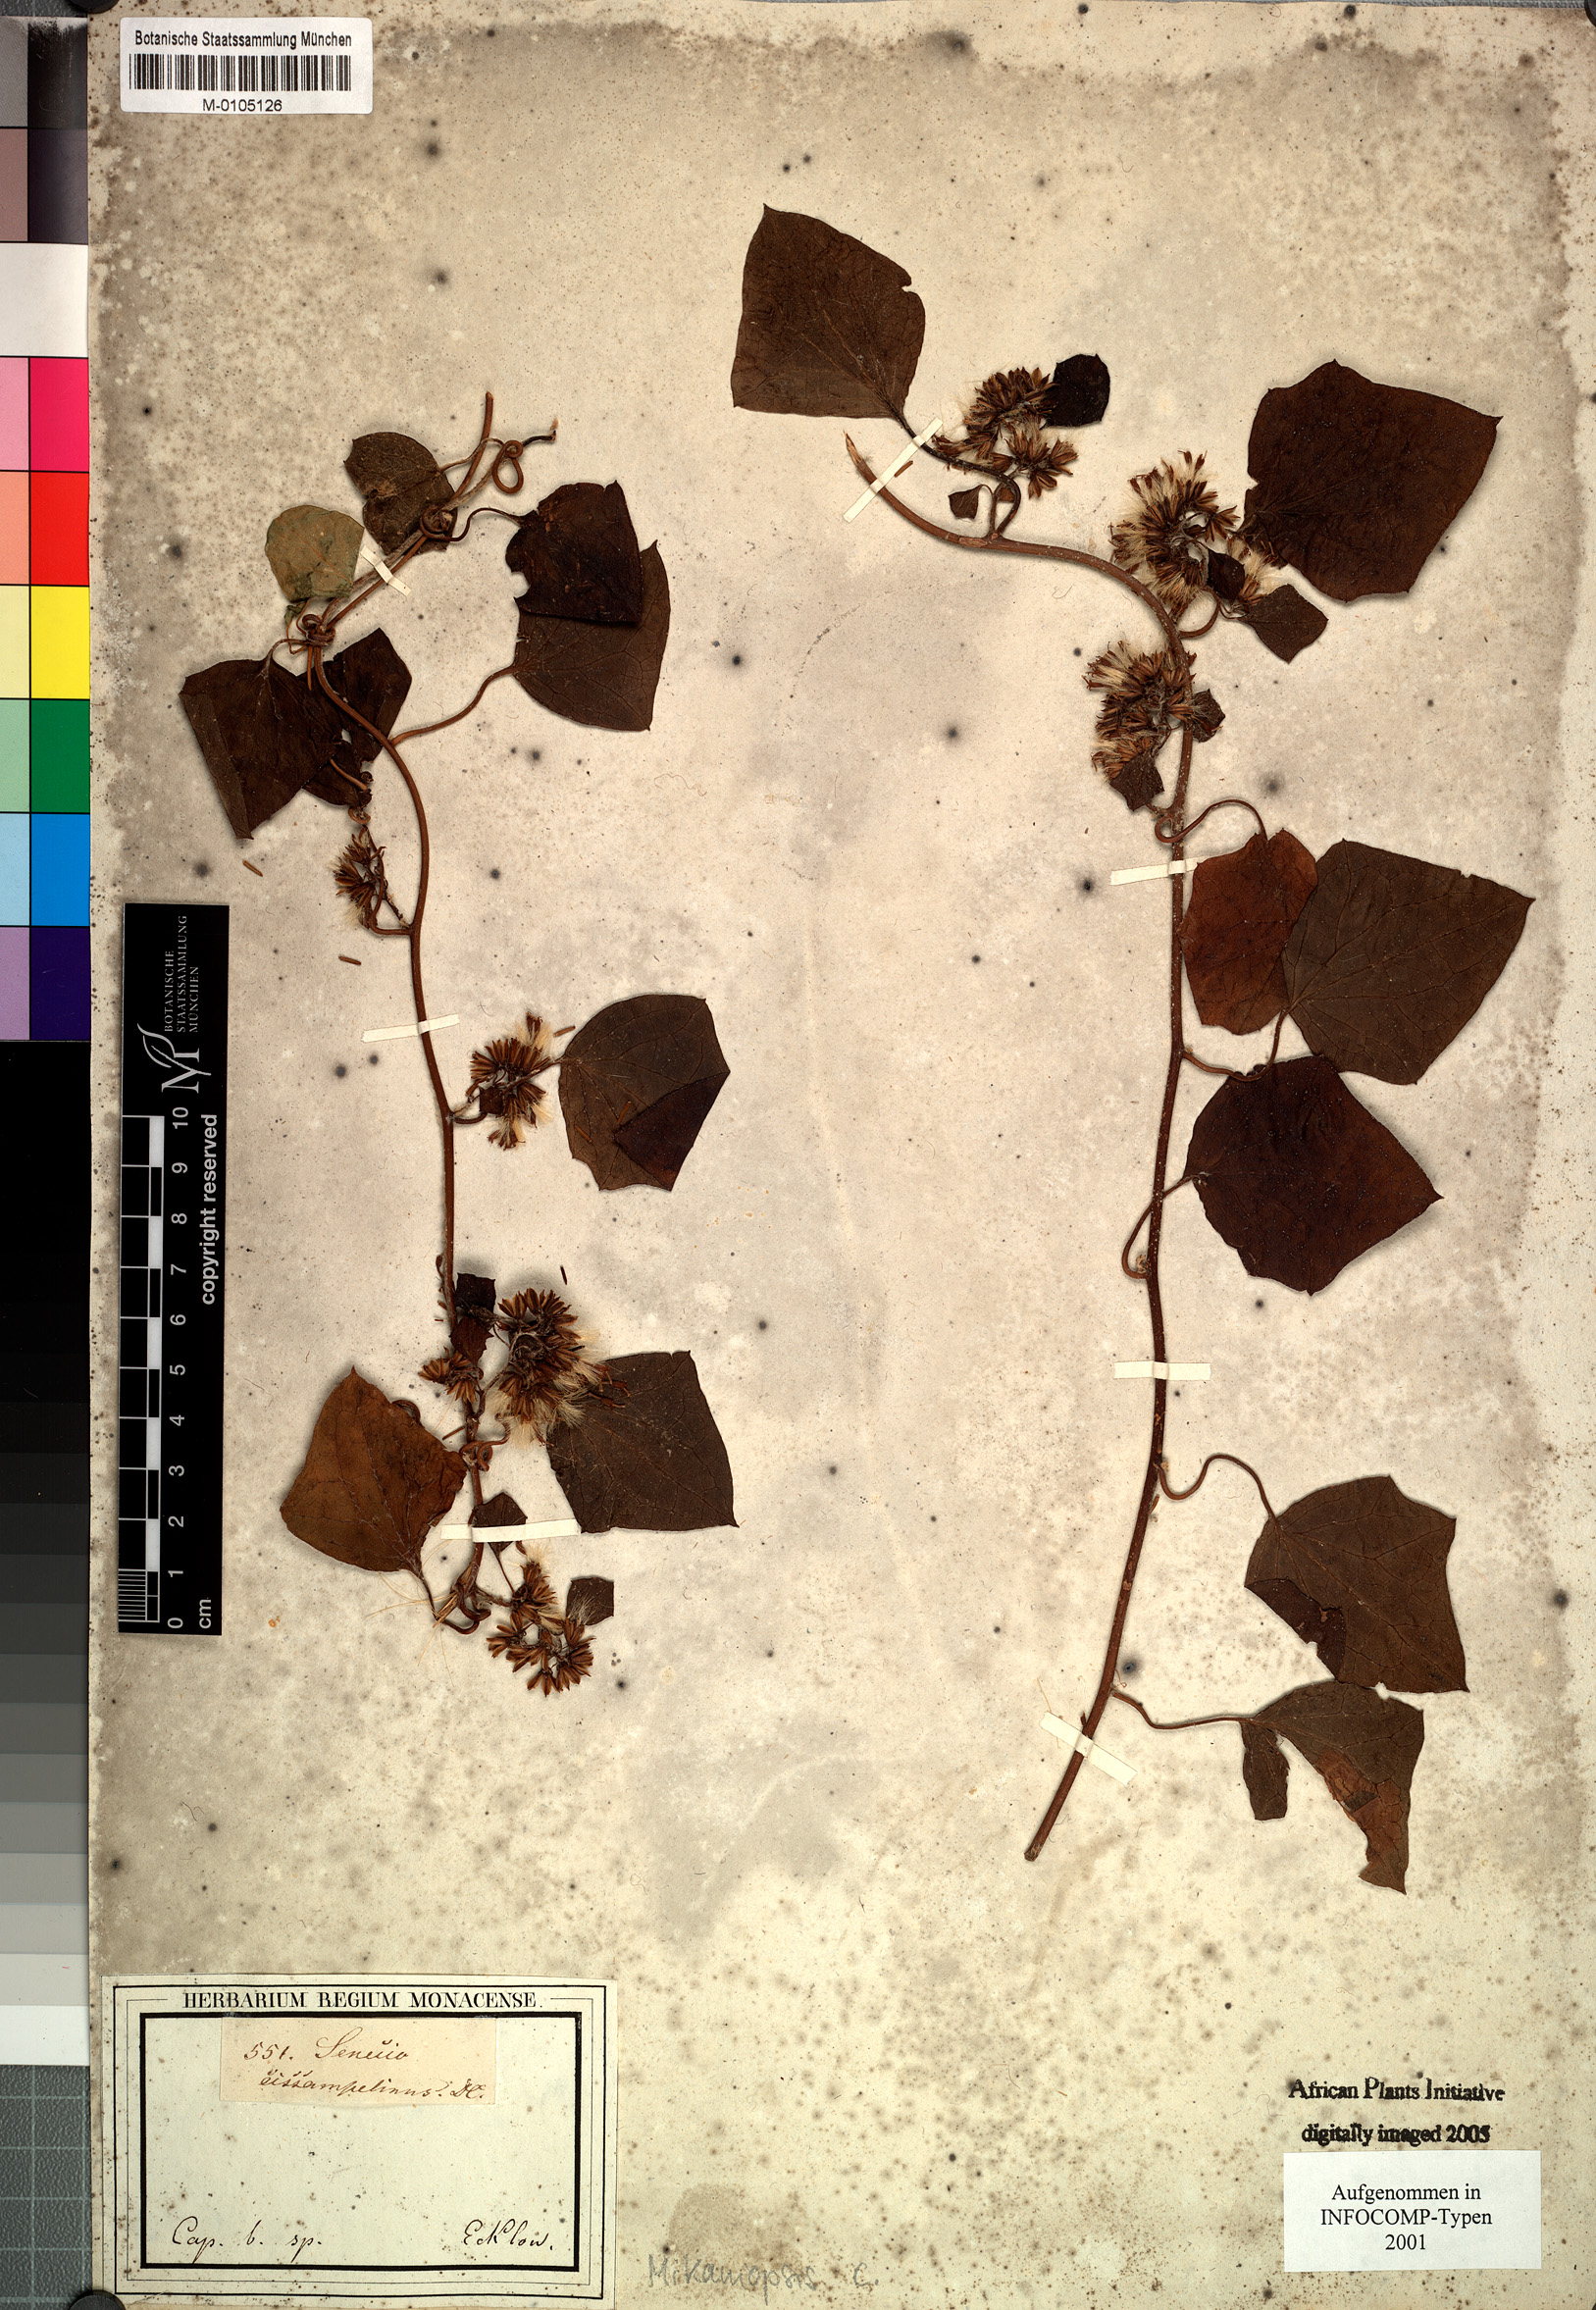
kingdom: Plantae
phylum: Tracheophyta
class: Magnoliopsida
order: Asterales
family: Asteraceae
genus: Mikaniopsis
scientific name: Mikaniopsis cissampelina
